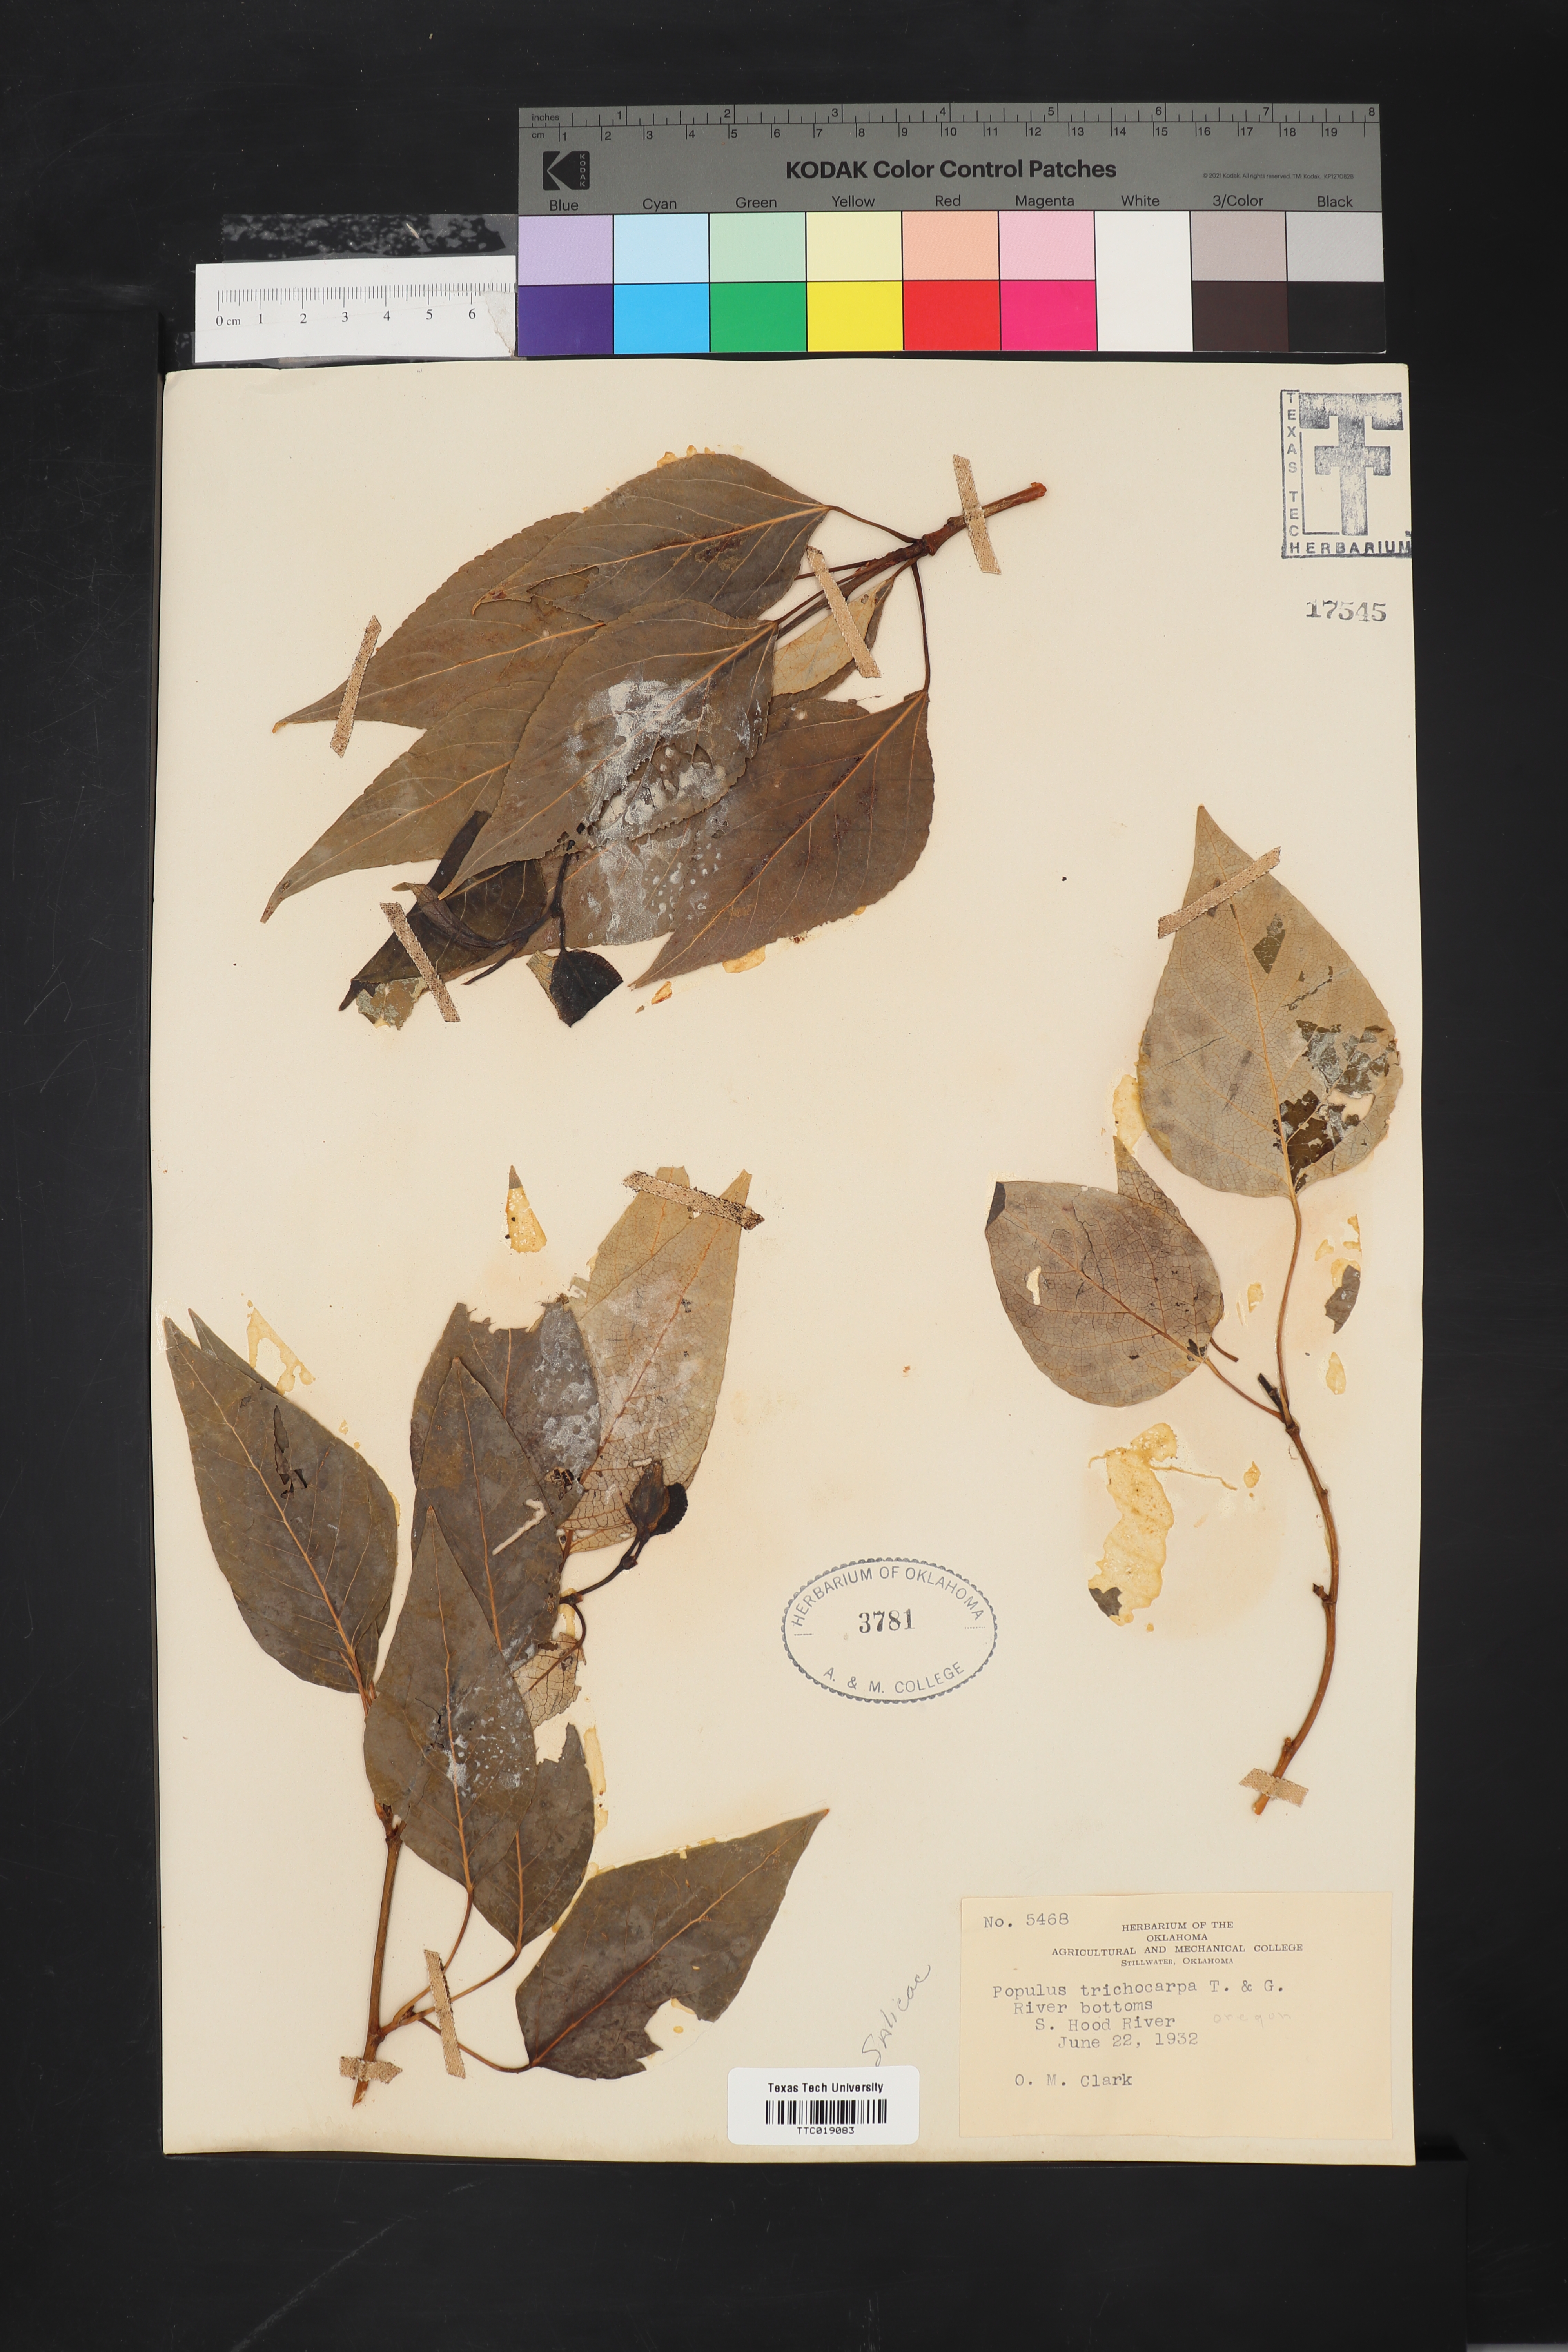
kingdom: Plantae
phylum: Tracheophyta
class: Magnoliopsida
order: Malpighiales
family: Salicaceae
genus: Populus
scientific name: Populus trichocarpa
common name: Black cottonwood
